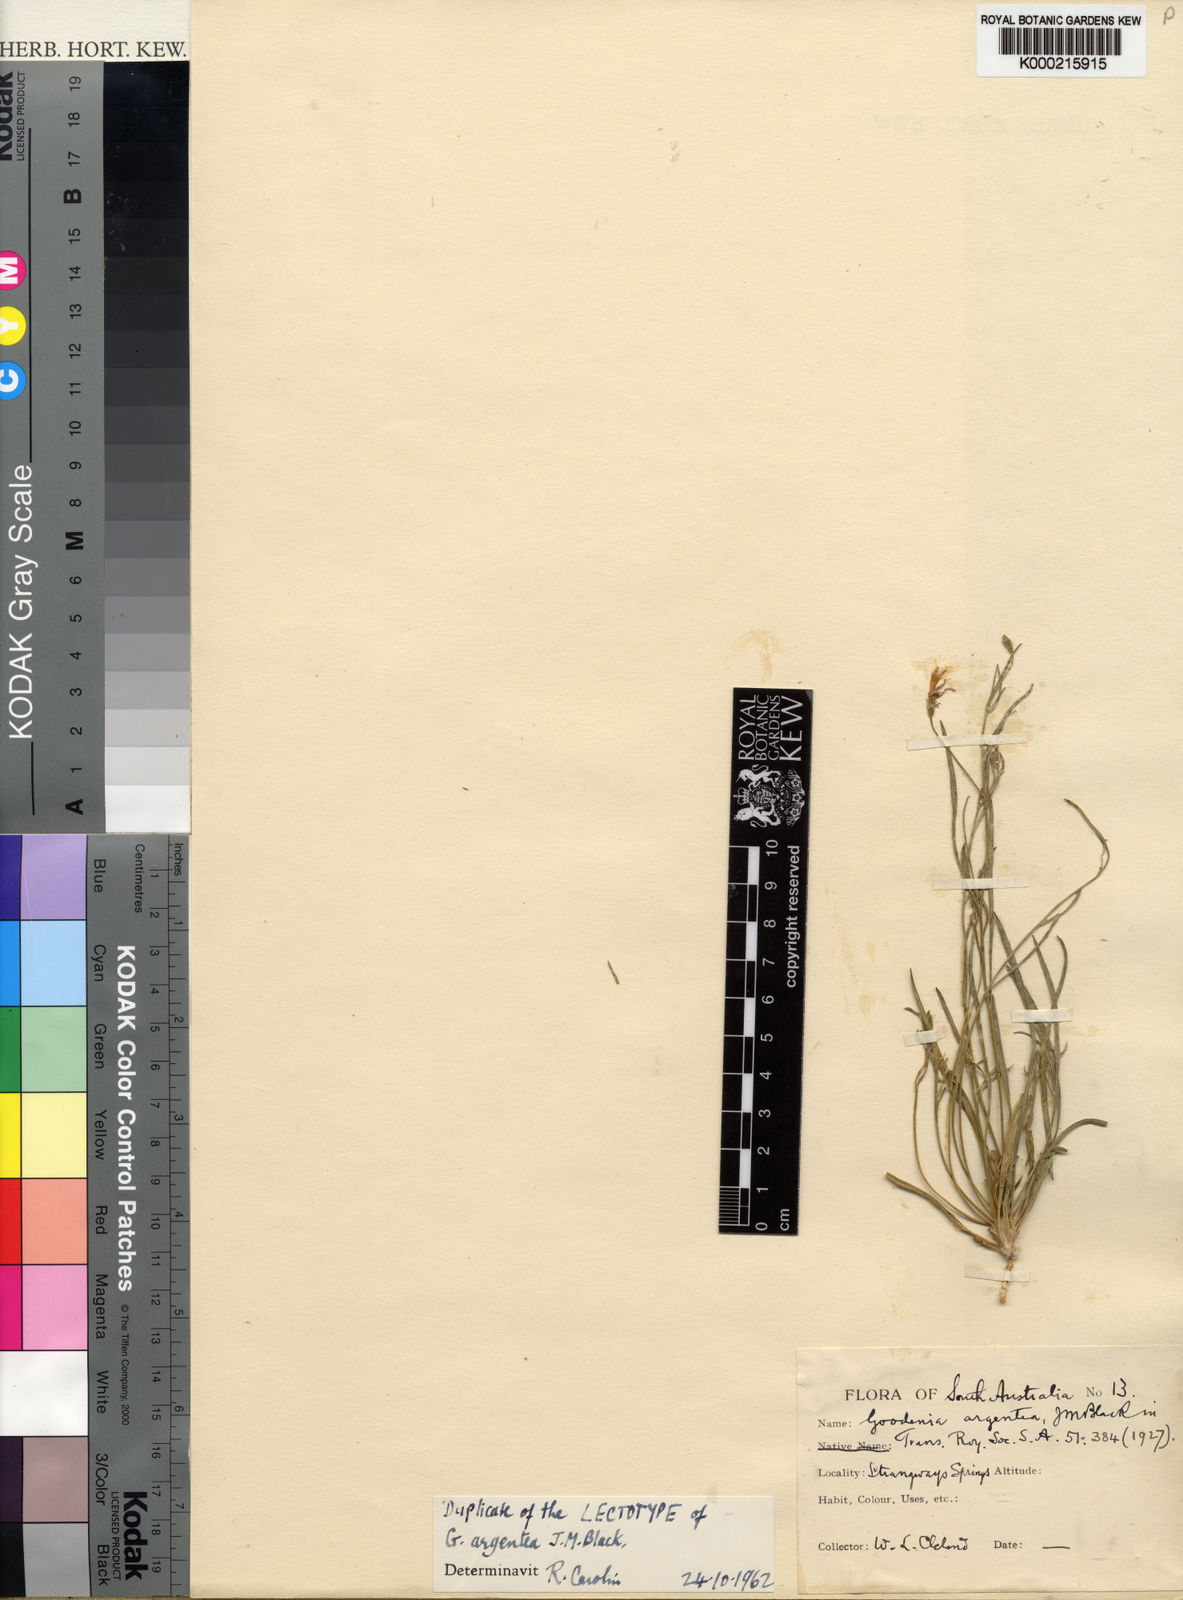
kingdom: Plantae
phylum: Tracheophyta
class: Magnoliopsida
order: Asterales
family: Goodeniaceae
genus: Goodenia
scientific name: Goodenia lunata
